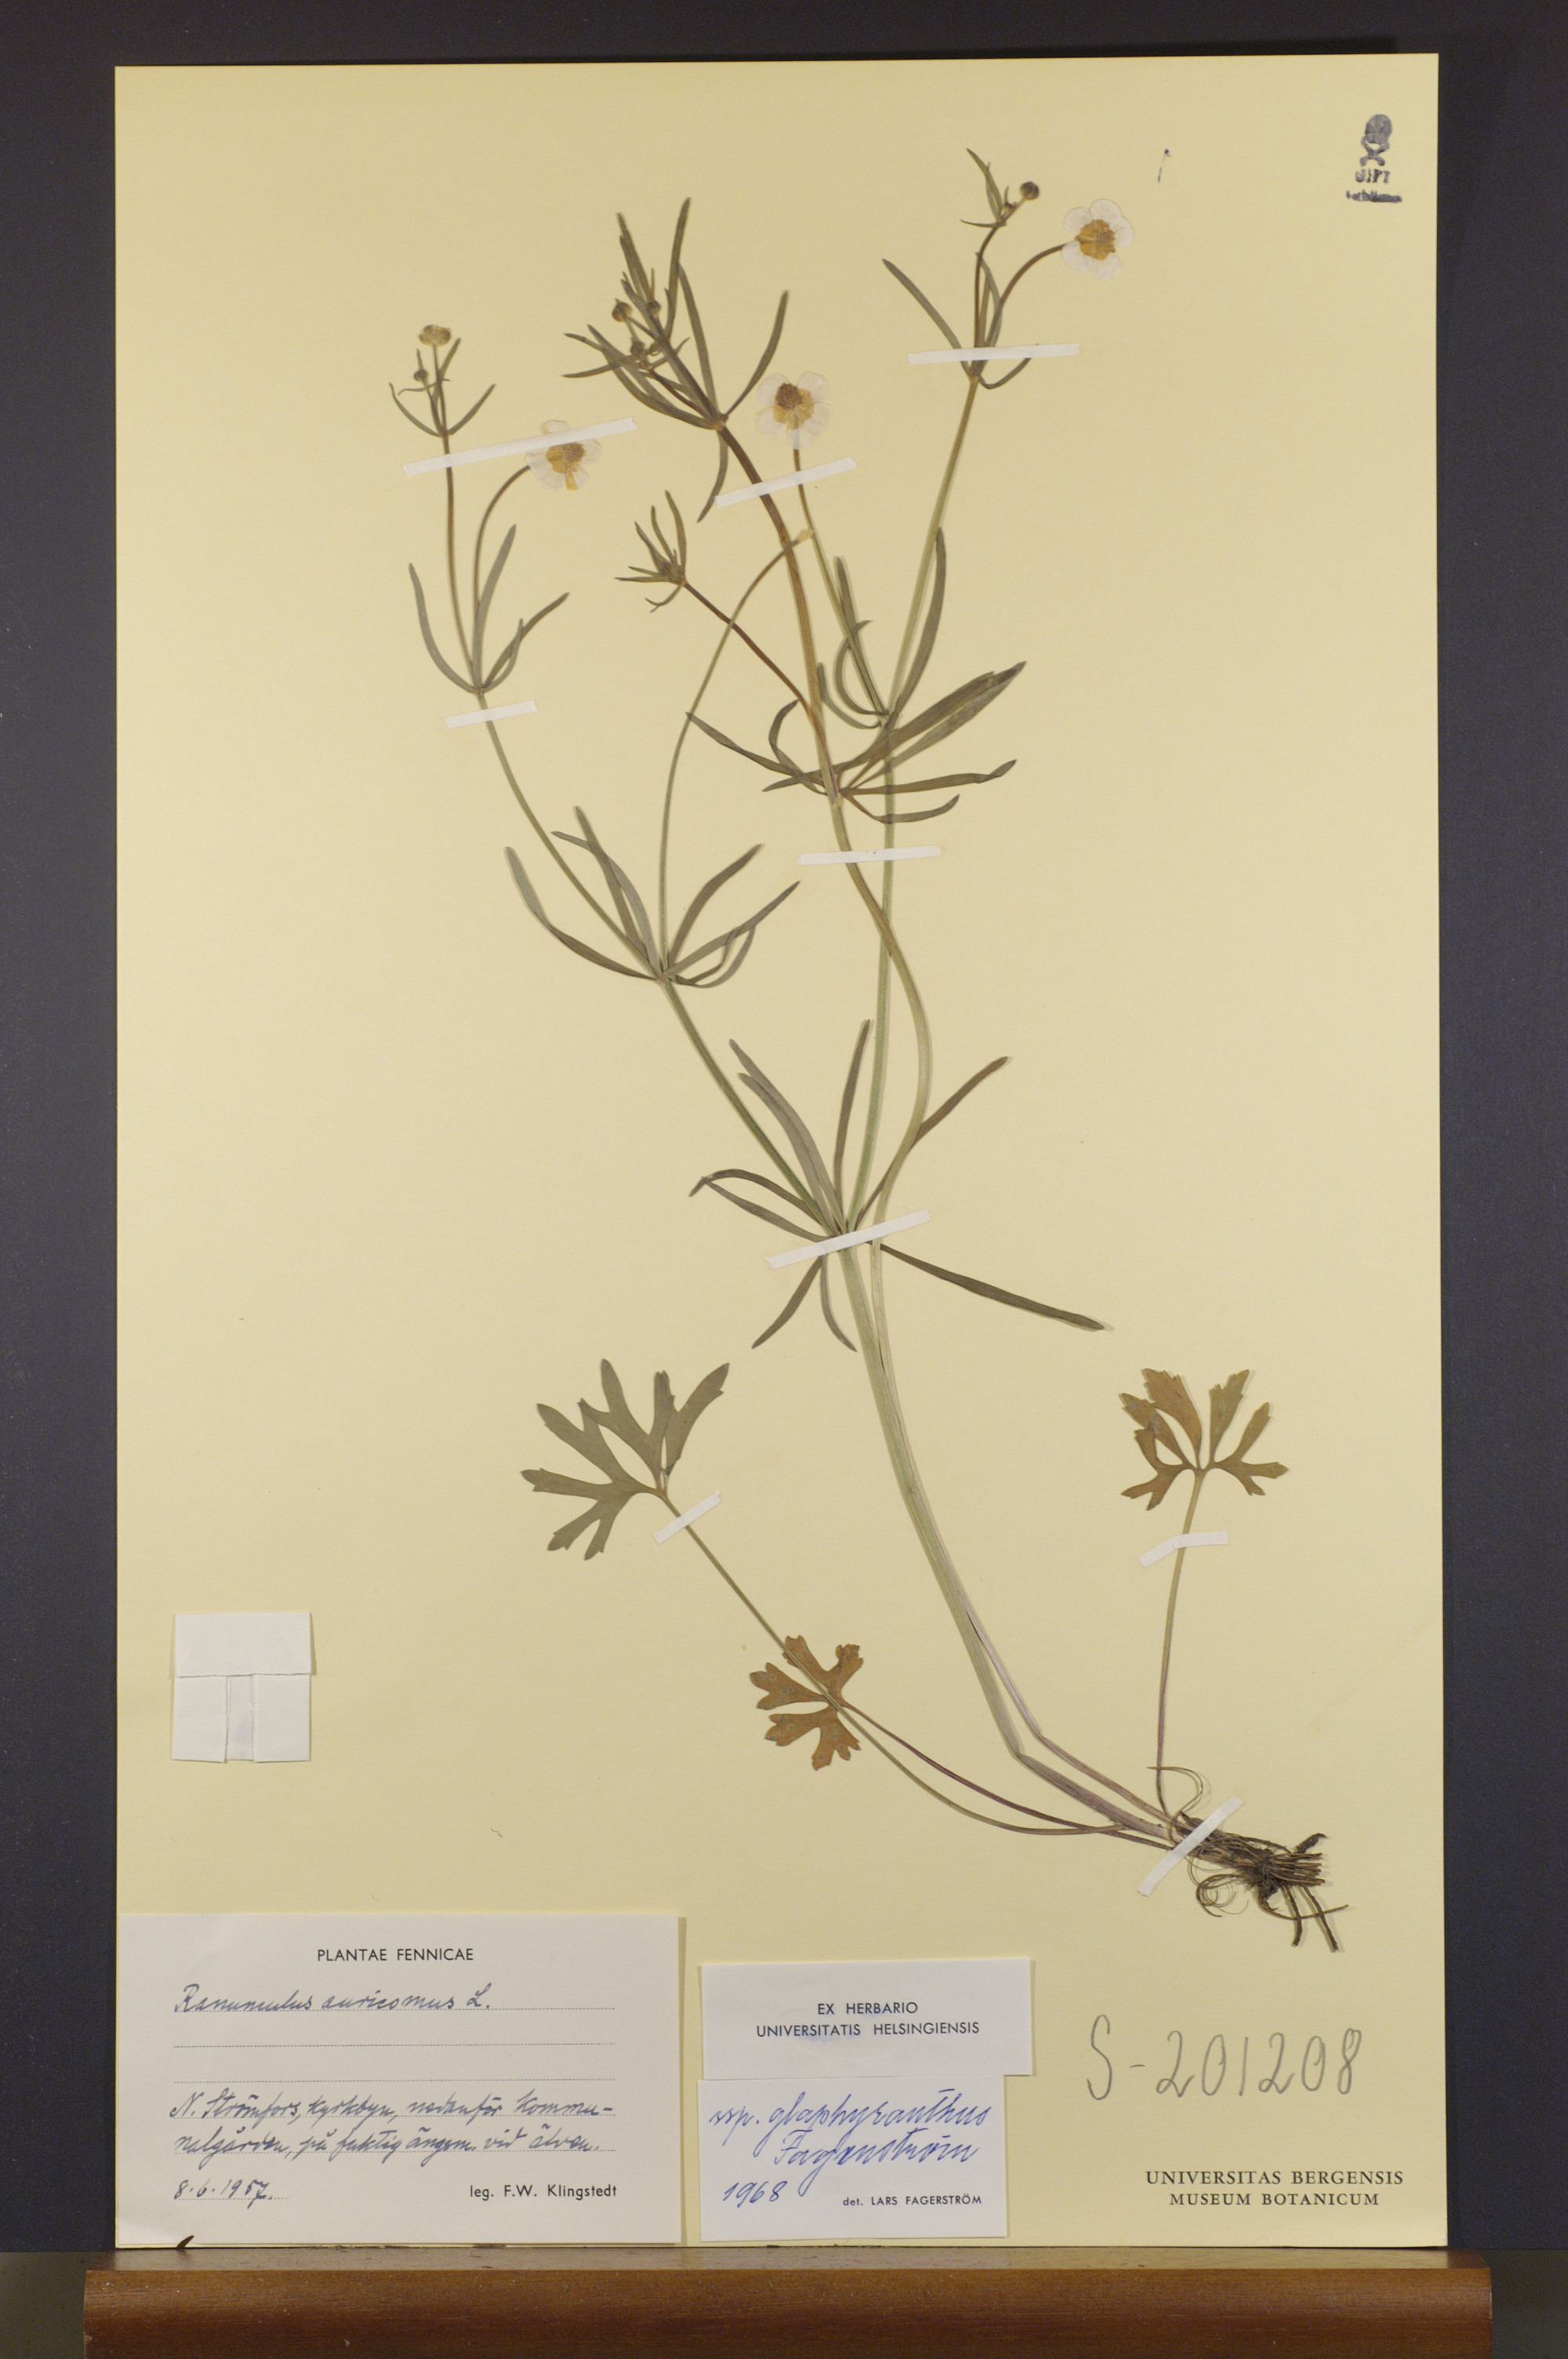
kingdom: Plantae
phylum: Tracheophyta
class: Magnoliopsida
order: Ranunculales
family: Ranunculaceae
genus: Ranunculus
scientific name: Ranunculus glaphyranthus
